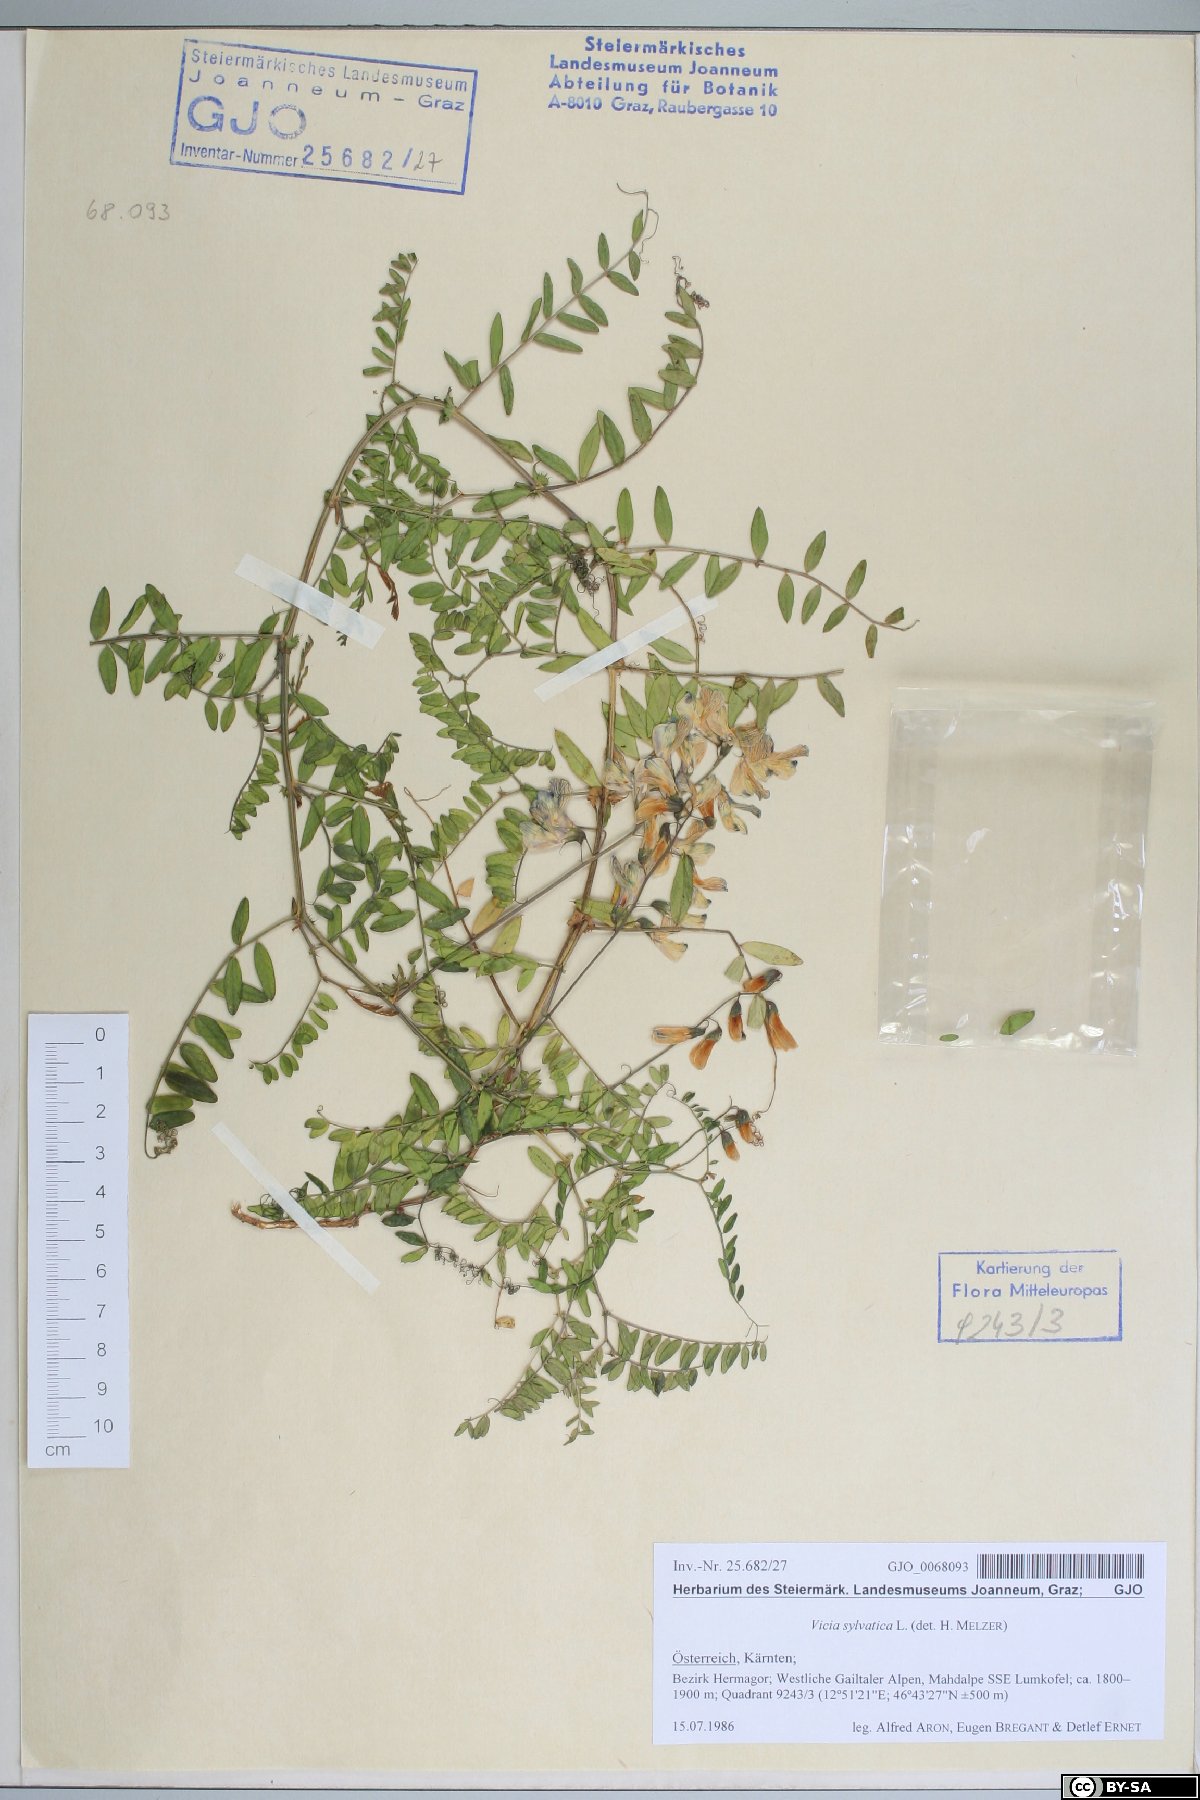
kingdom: Plantae
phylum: Tracheophyta
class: Magnoliopsida
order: Fabales
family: Fabaceae
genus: Vicia
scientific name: Vicia sylvatica
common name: Wood vetch
